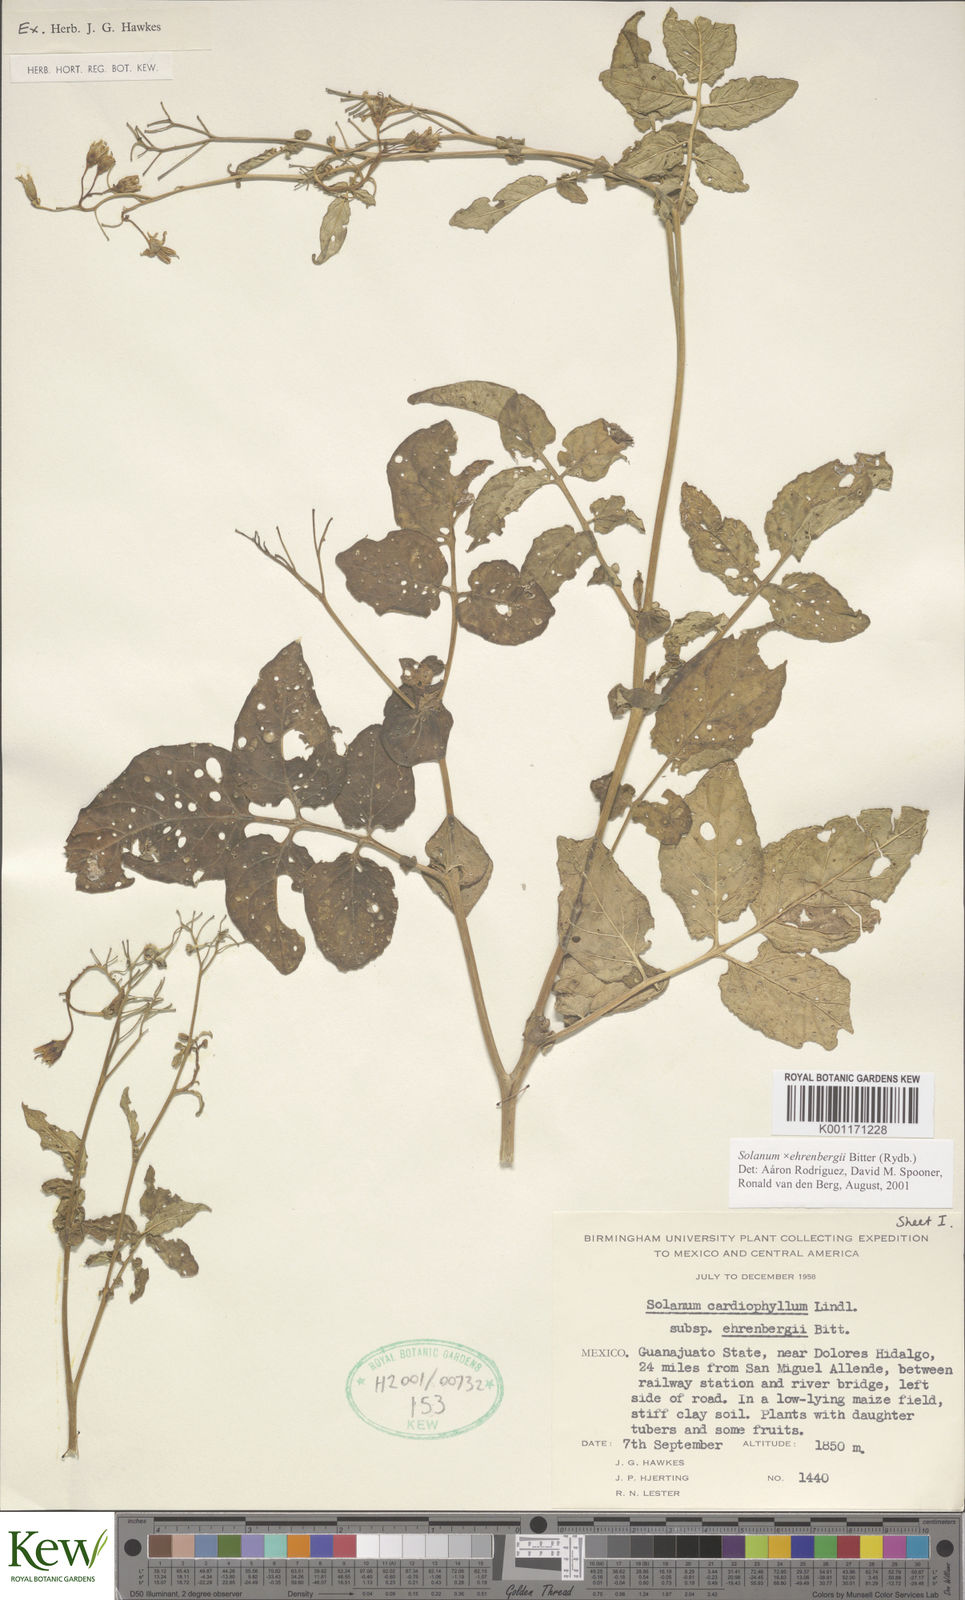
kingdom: Plantae
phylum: Tracheophyta
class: Magnoliopsida
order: Solanales
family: Solanaceae
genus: Solanum
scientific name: Solanum edinense
